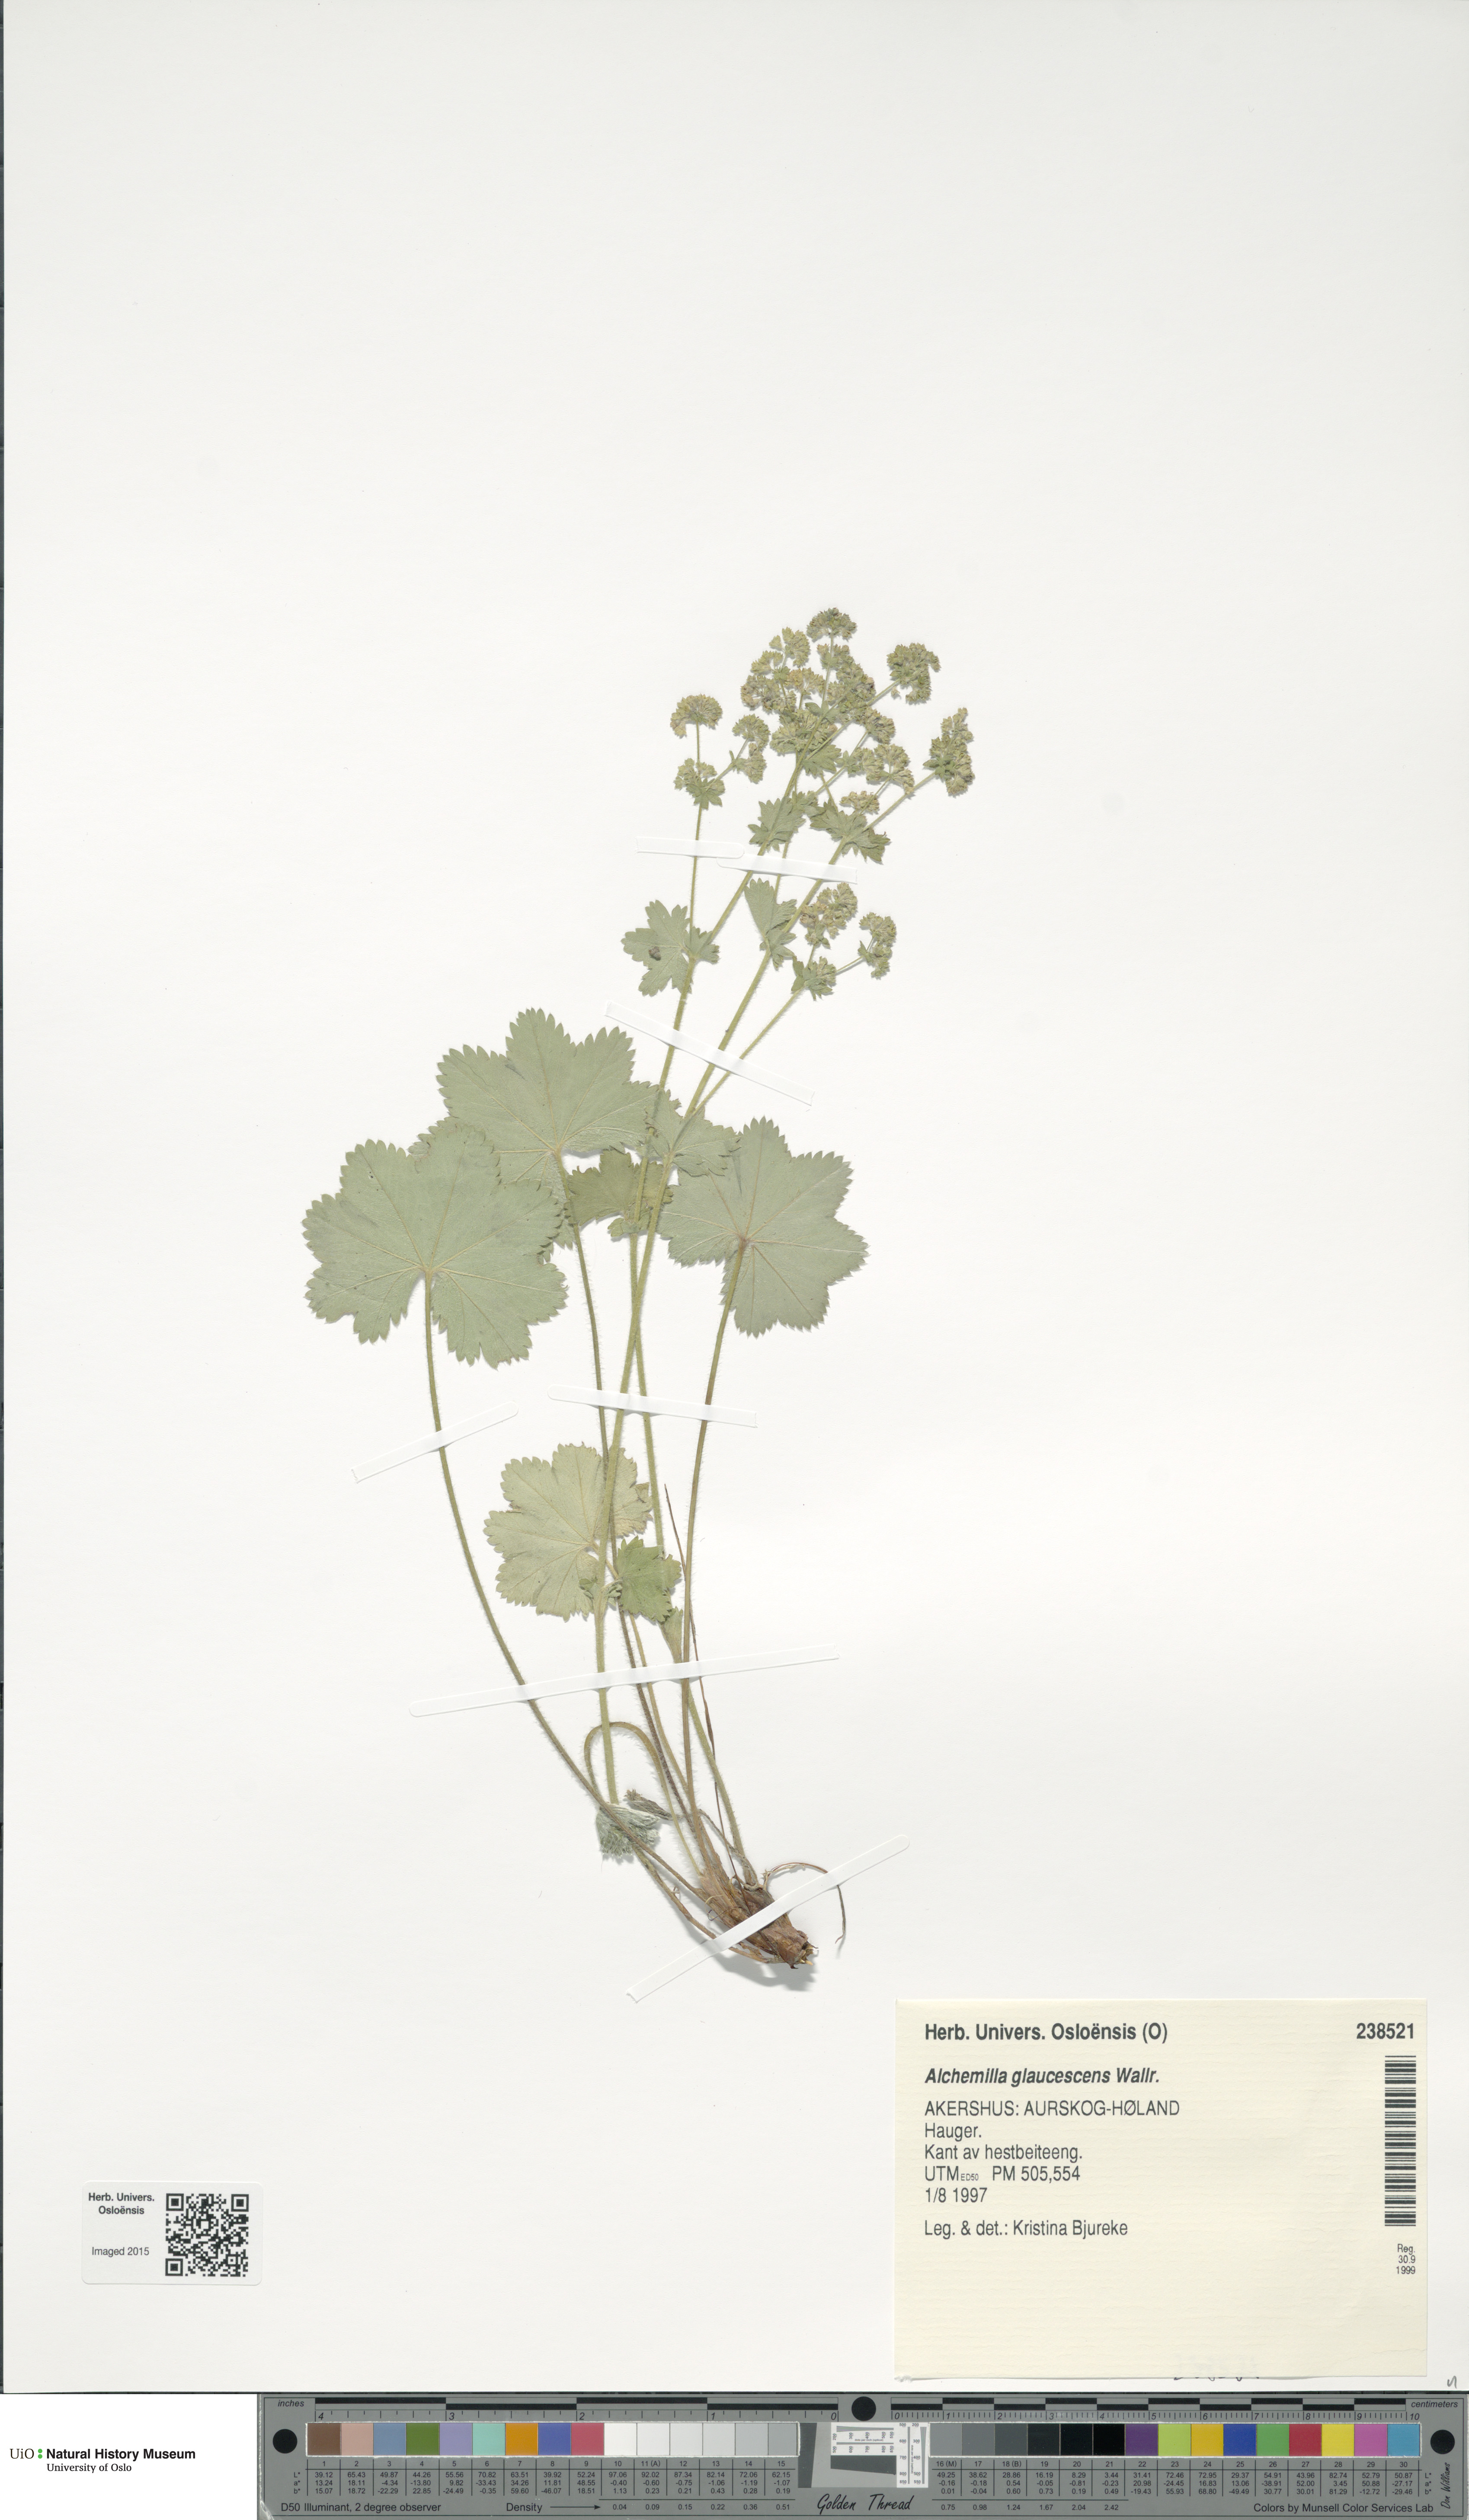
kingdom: Plantae
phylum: Tracheophyta
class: Magnoliopsida
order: Rosales
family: Rosaceae
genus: Alchemilla
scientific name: Alchemilla glaucescens
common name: Silky lady's mantle
